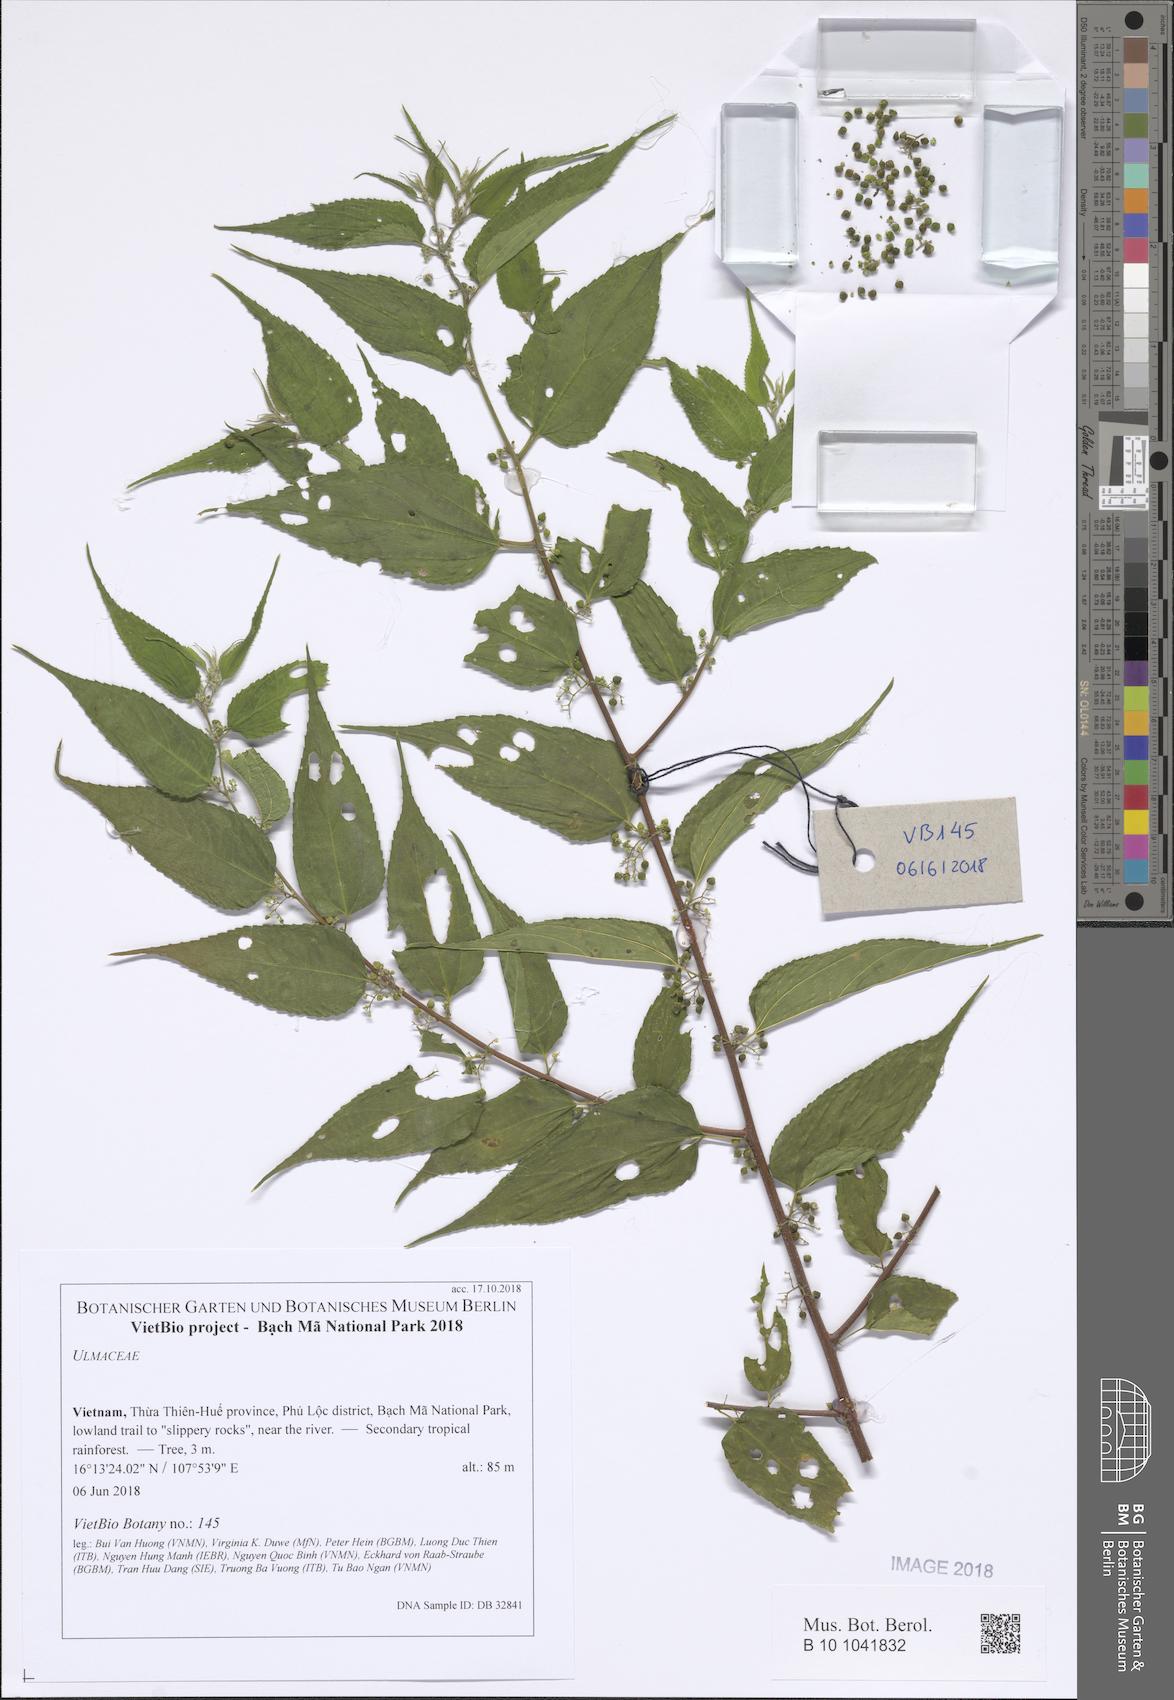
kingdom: Plantae
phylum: Tracheophyta
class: Magnoliopsida
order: Rosales
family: Ulmaceae
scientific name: Ulmaceae
